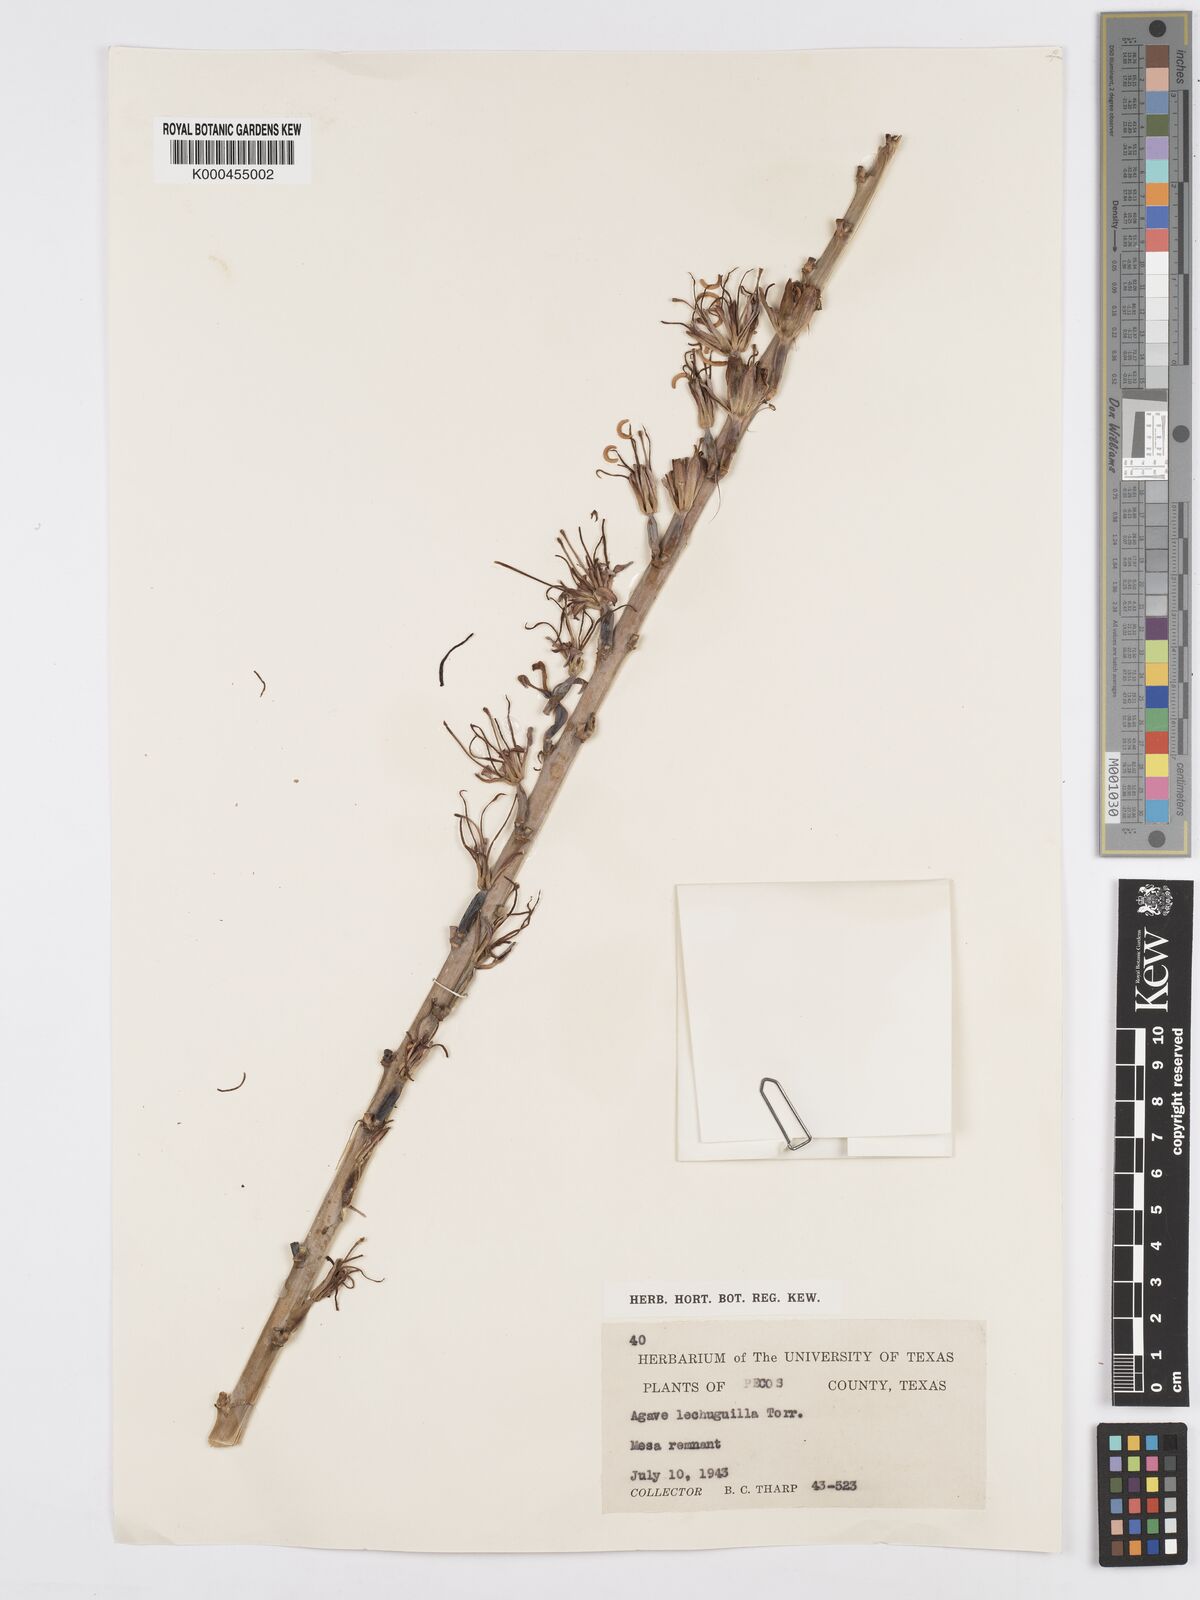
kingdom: Plantae
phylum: Tracheophyta
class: Liliopsida
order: Asparagales
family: Asparagaceae
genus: Agave
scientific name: Agave lechuguilla
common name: Lecheguilla agave
